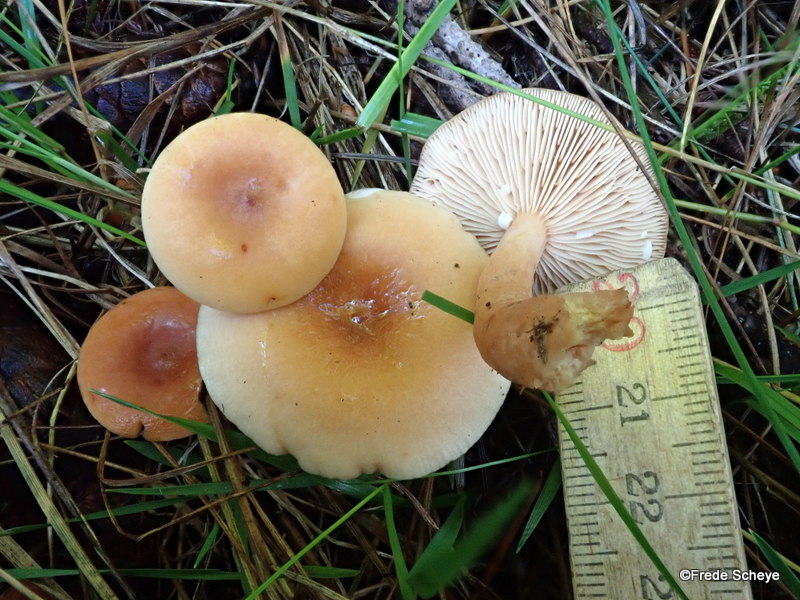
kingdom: Fungi
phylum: Basidiomycota
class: Agaricomycetes
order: Russulales
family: Russulaceae
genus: Lactarius
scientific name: Lactarius tabidus
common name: rynket mælkehat
